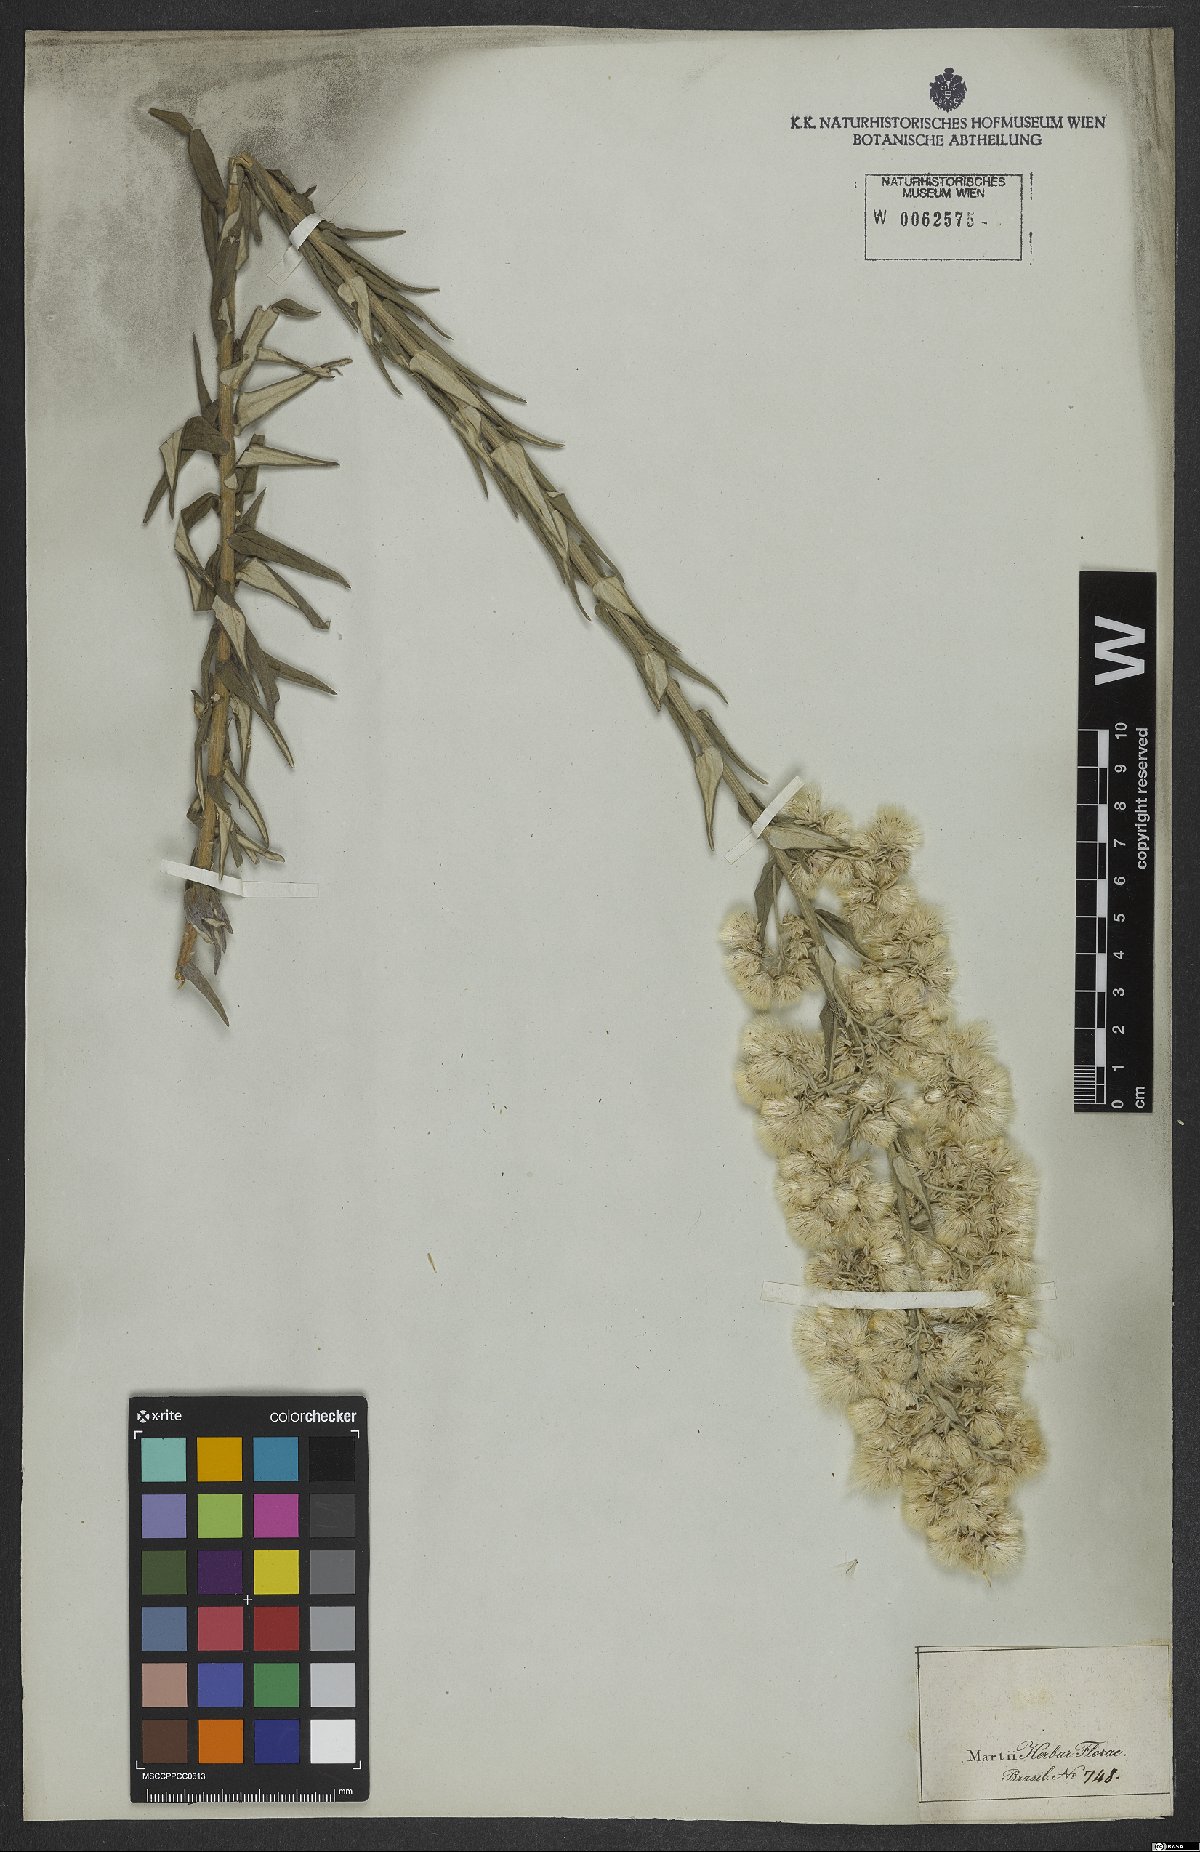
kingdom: Plantae
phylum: Tracheophyta
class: Magnoliopsida
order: Asterales
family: Asteraceae
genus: Baccharis
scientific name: Baccharis helichrysoides
